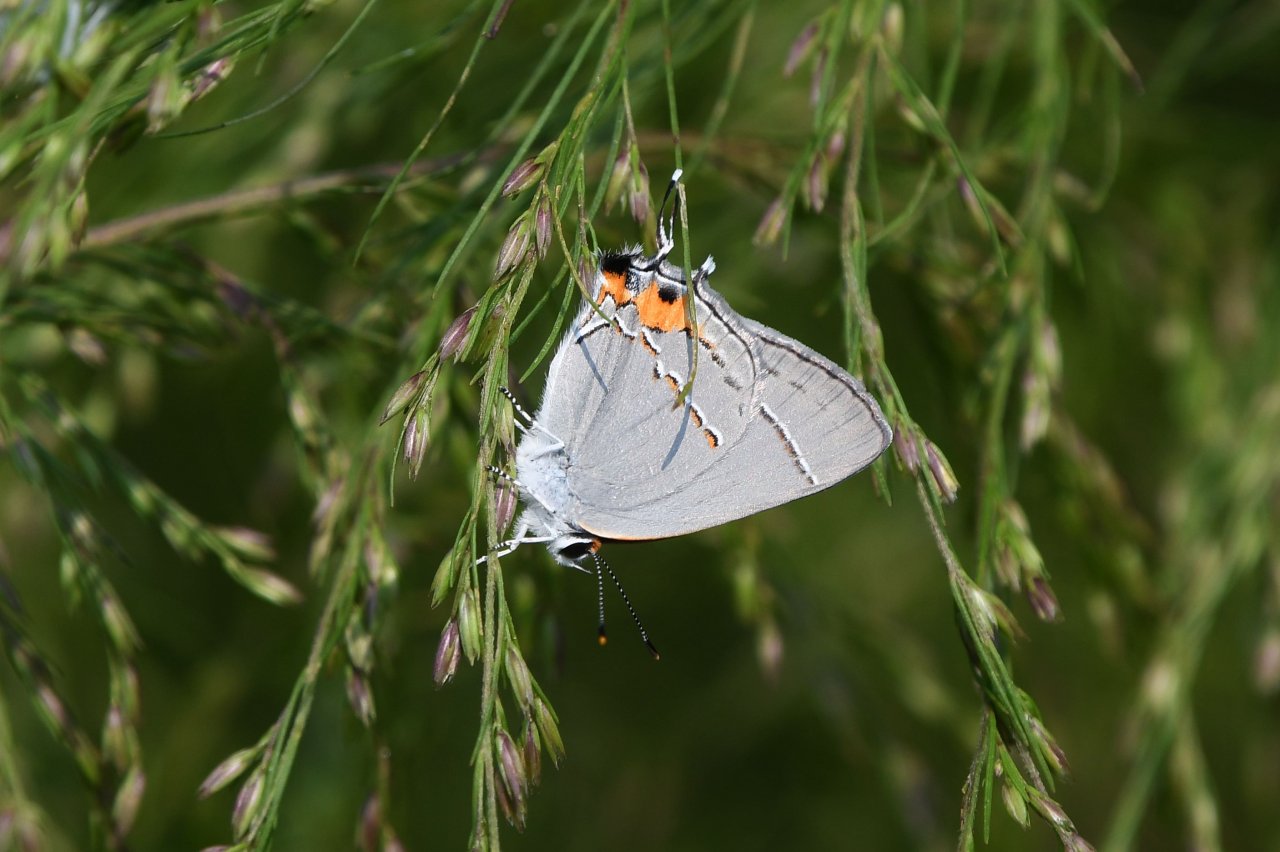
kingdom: Animalia
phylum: Arthropoda
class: Insecta
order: Lepidoptera
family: Lycaenidae
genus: Strymon
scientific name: Strymon melinus
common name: Gray Hairstreak
